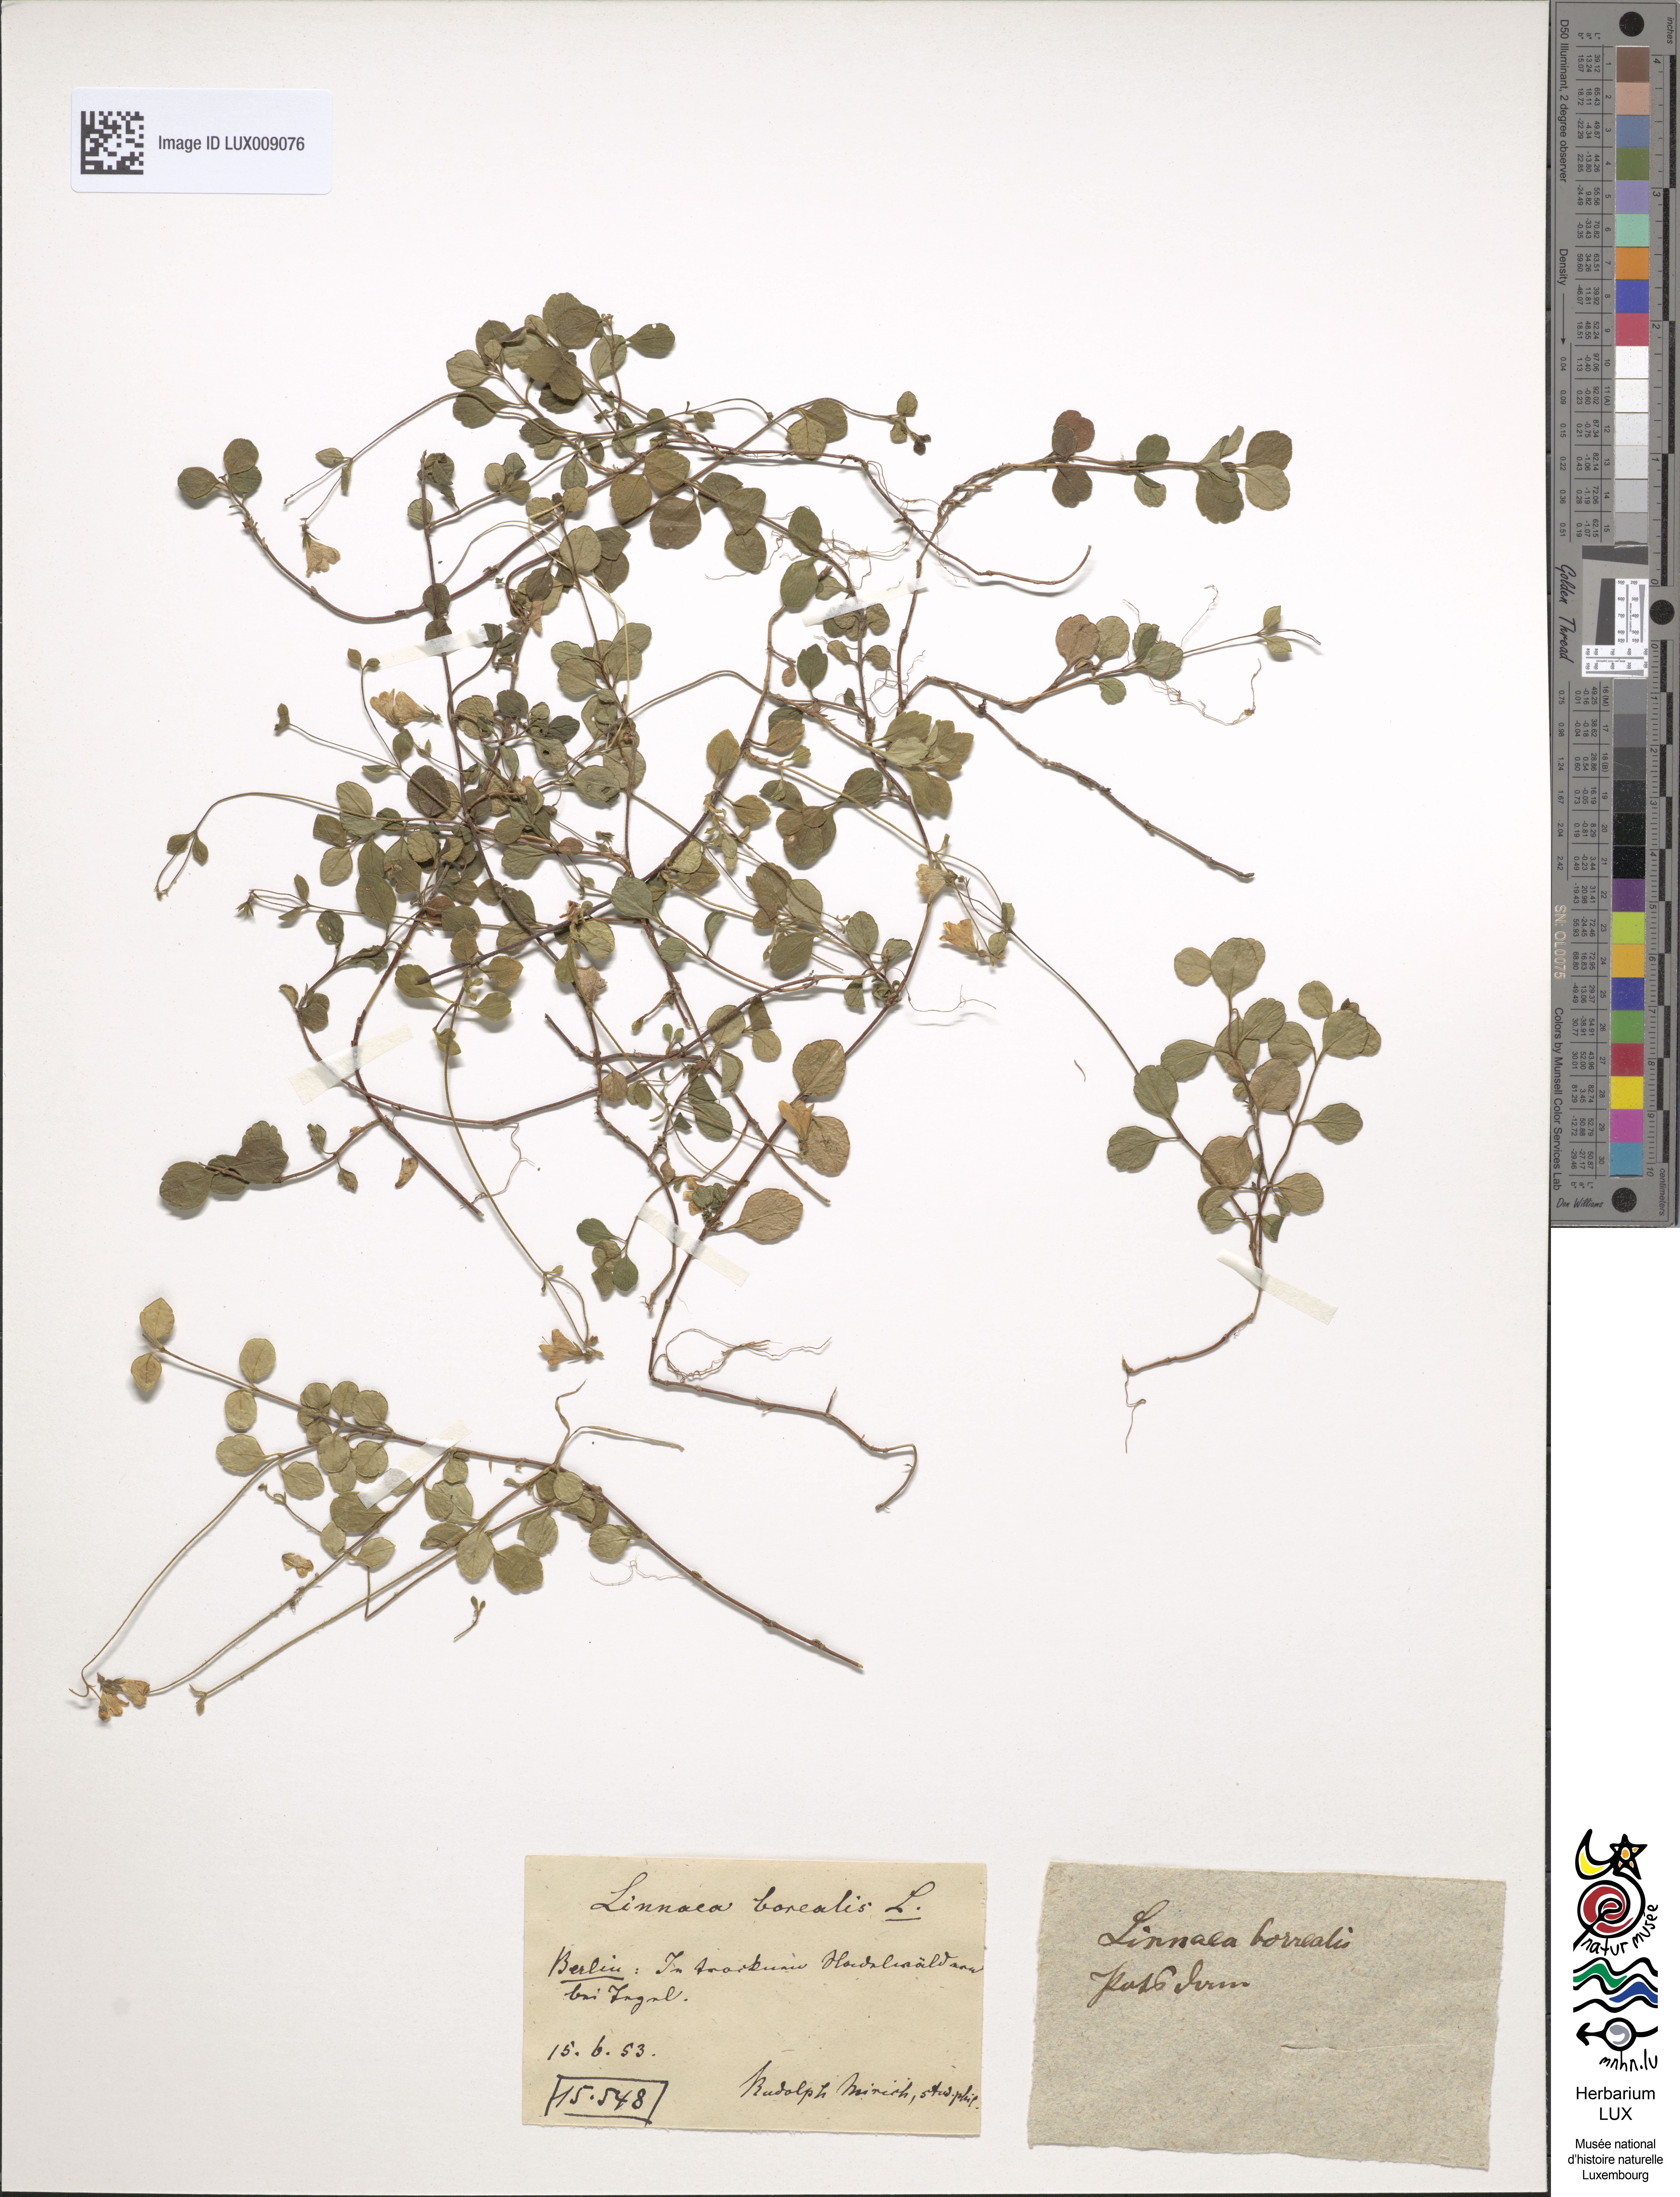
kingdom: Plantae
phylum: Tracheophyta
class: Magnoliopsida
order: Dipsacales
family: Caprifoliaceae
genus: Linnaea
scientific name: Linnaea borealis
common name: Twinflower
